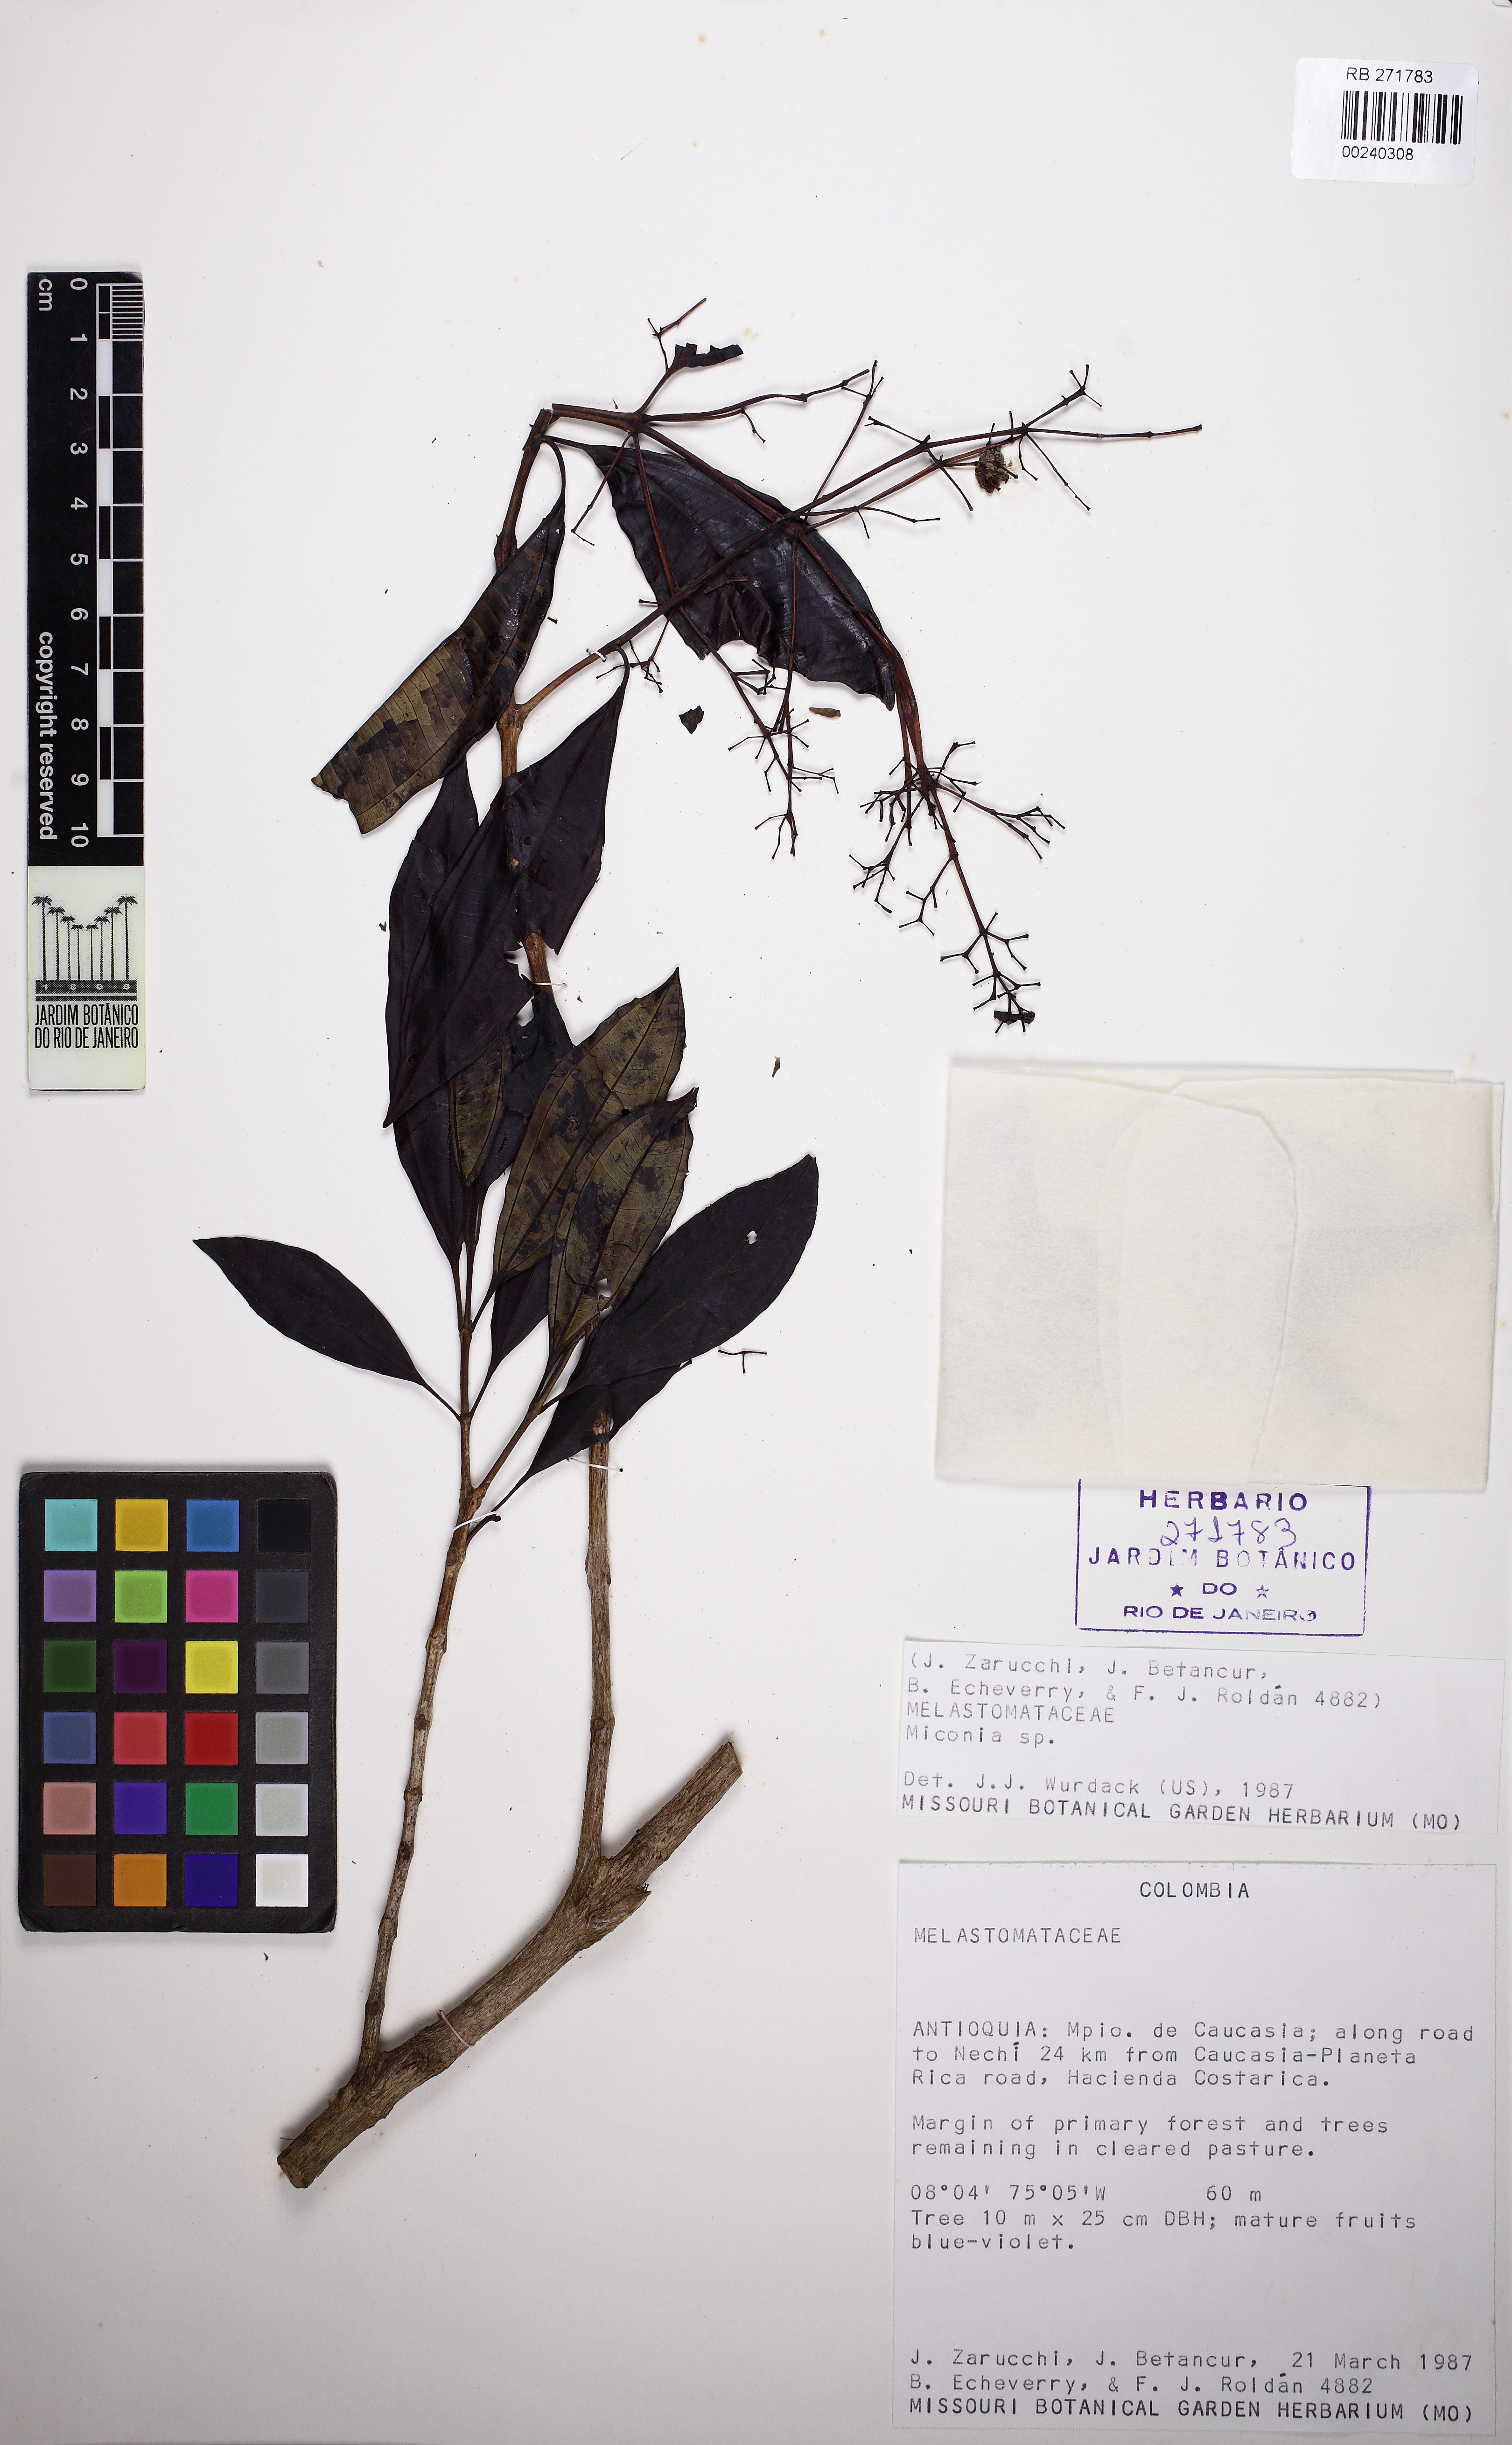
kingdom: Plantae
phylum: Tracheophyta
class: Magnoliopsida
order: Myrtales
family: Melastomataceae
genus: Miconia
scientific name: Miconia
